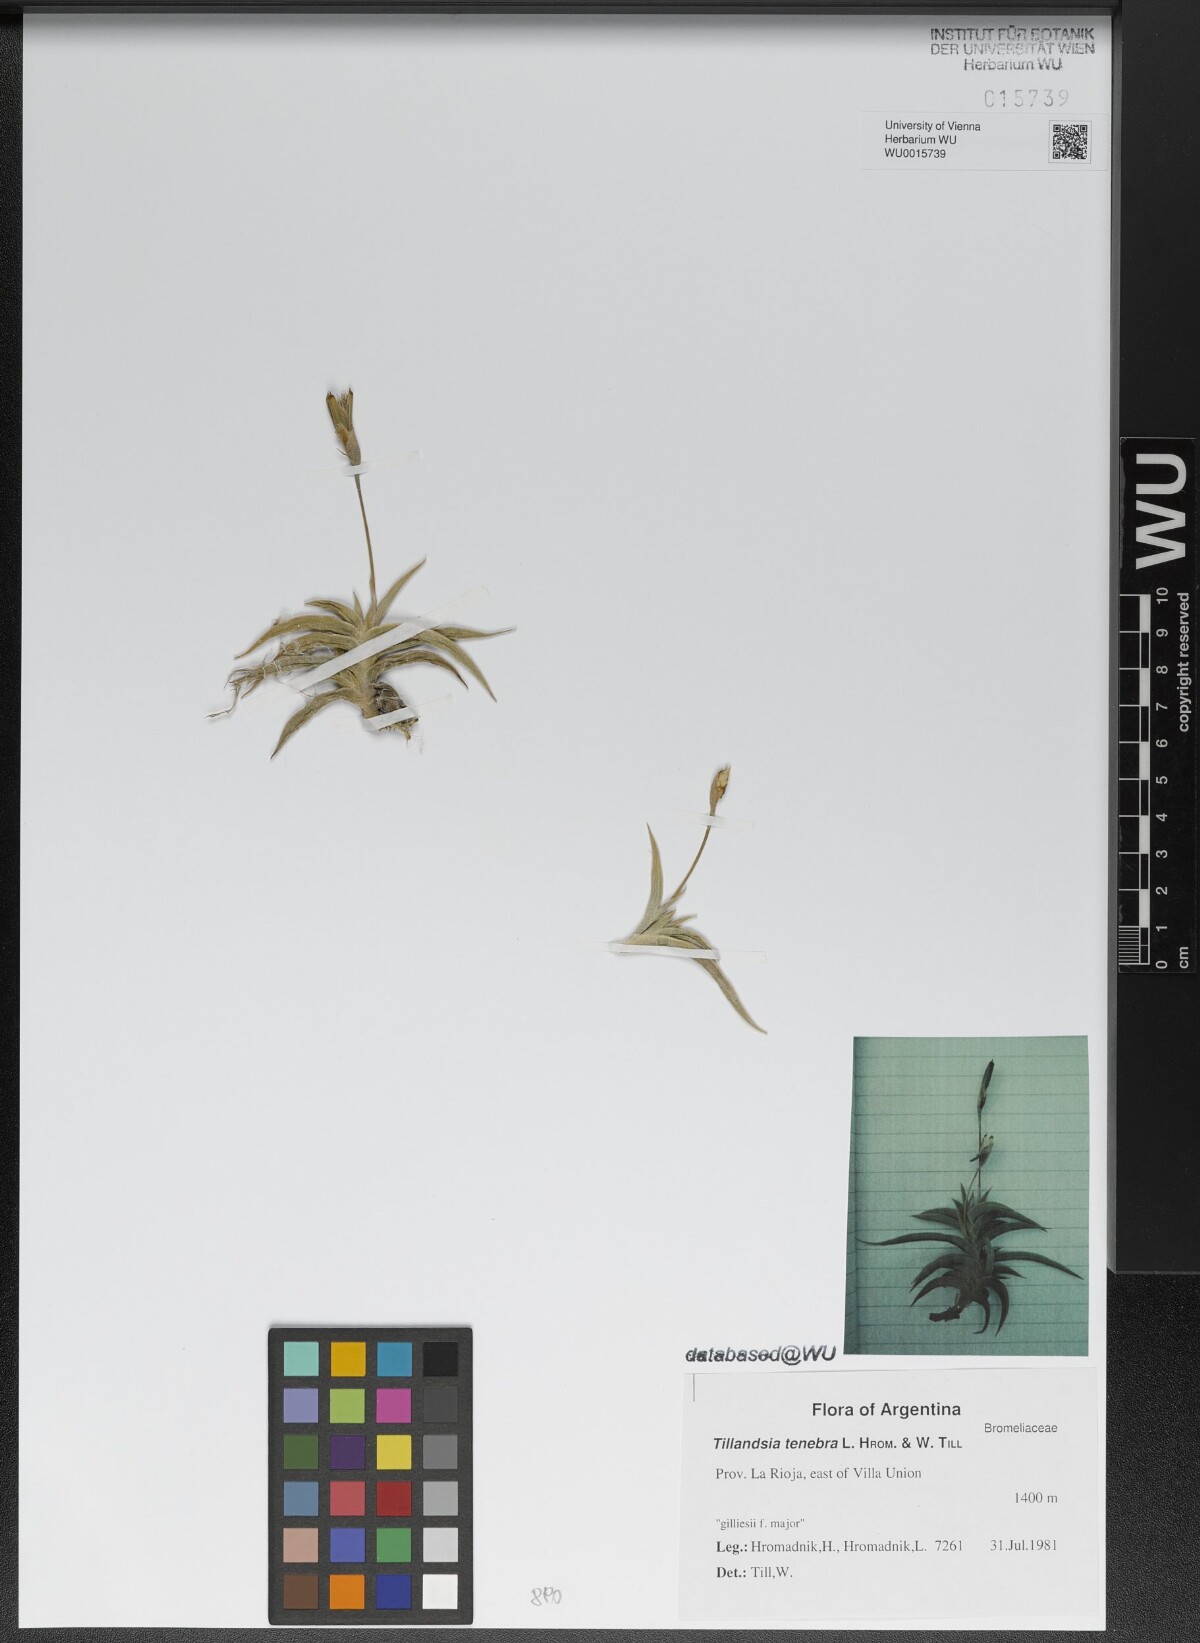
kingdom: Plantae
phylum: Tracheophyta
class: Liliopsida
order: Poales
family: Bromeliaceae
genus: Tillandsia
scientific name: Tillandsia tenebra
